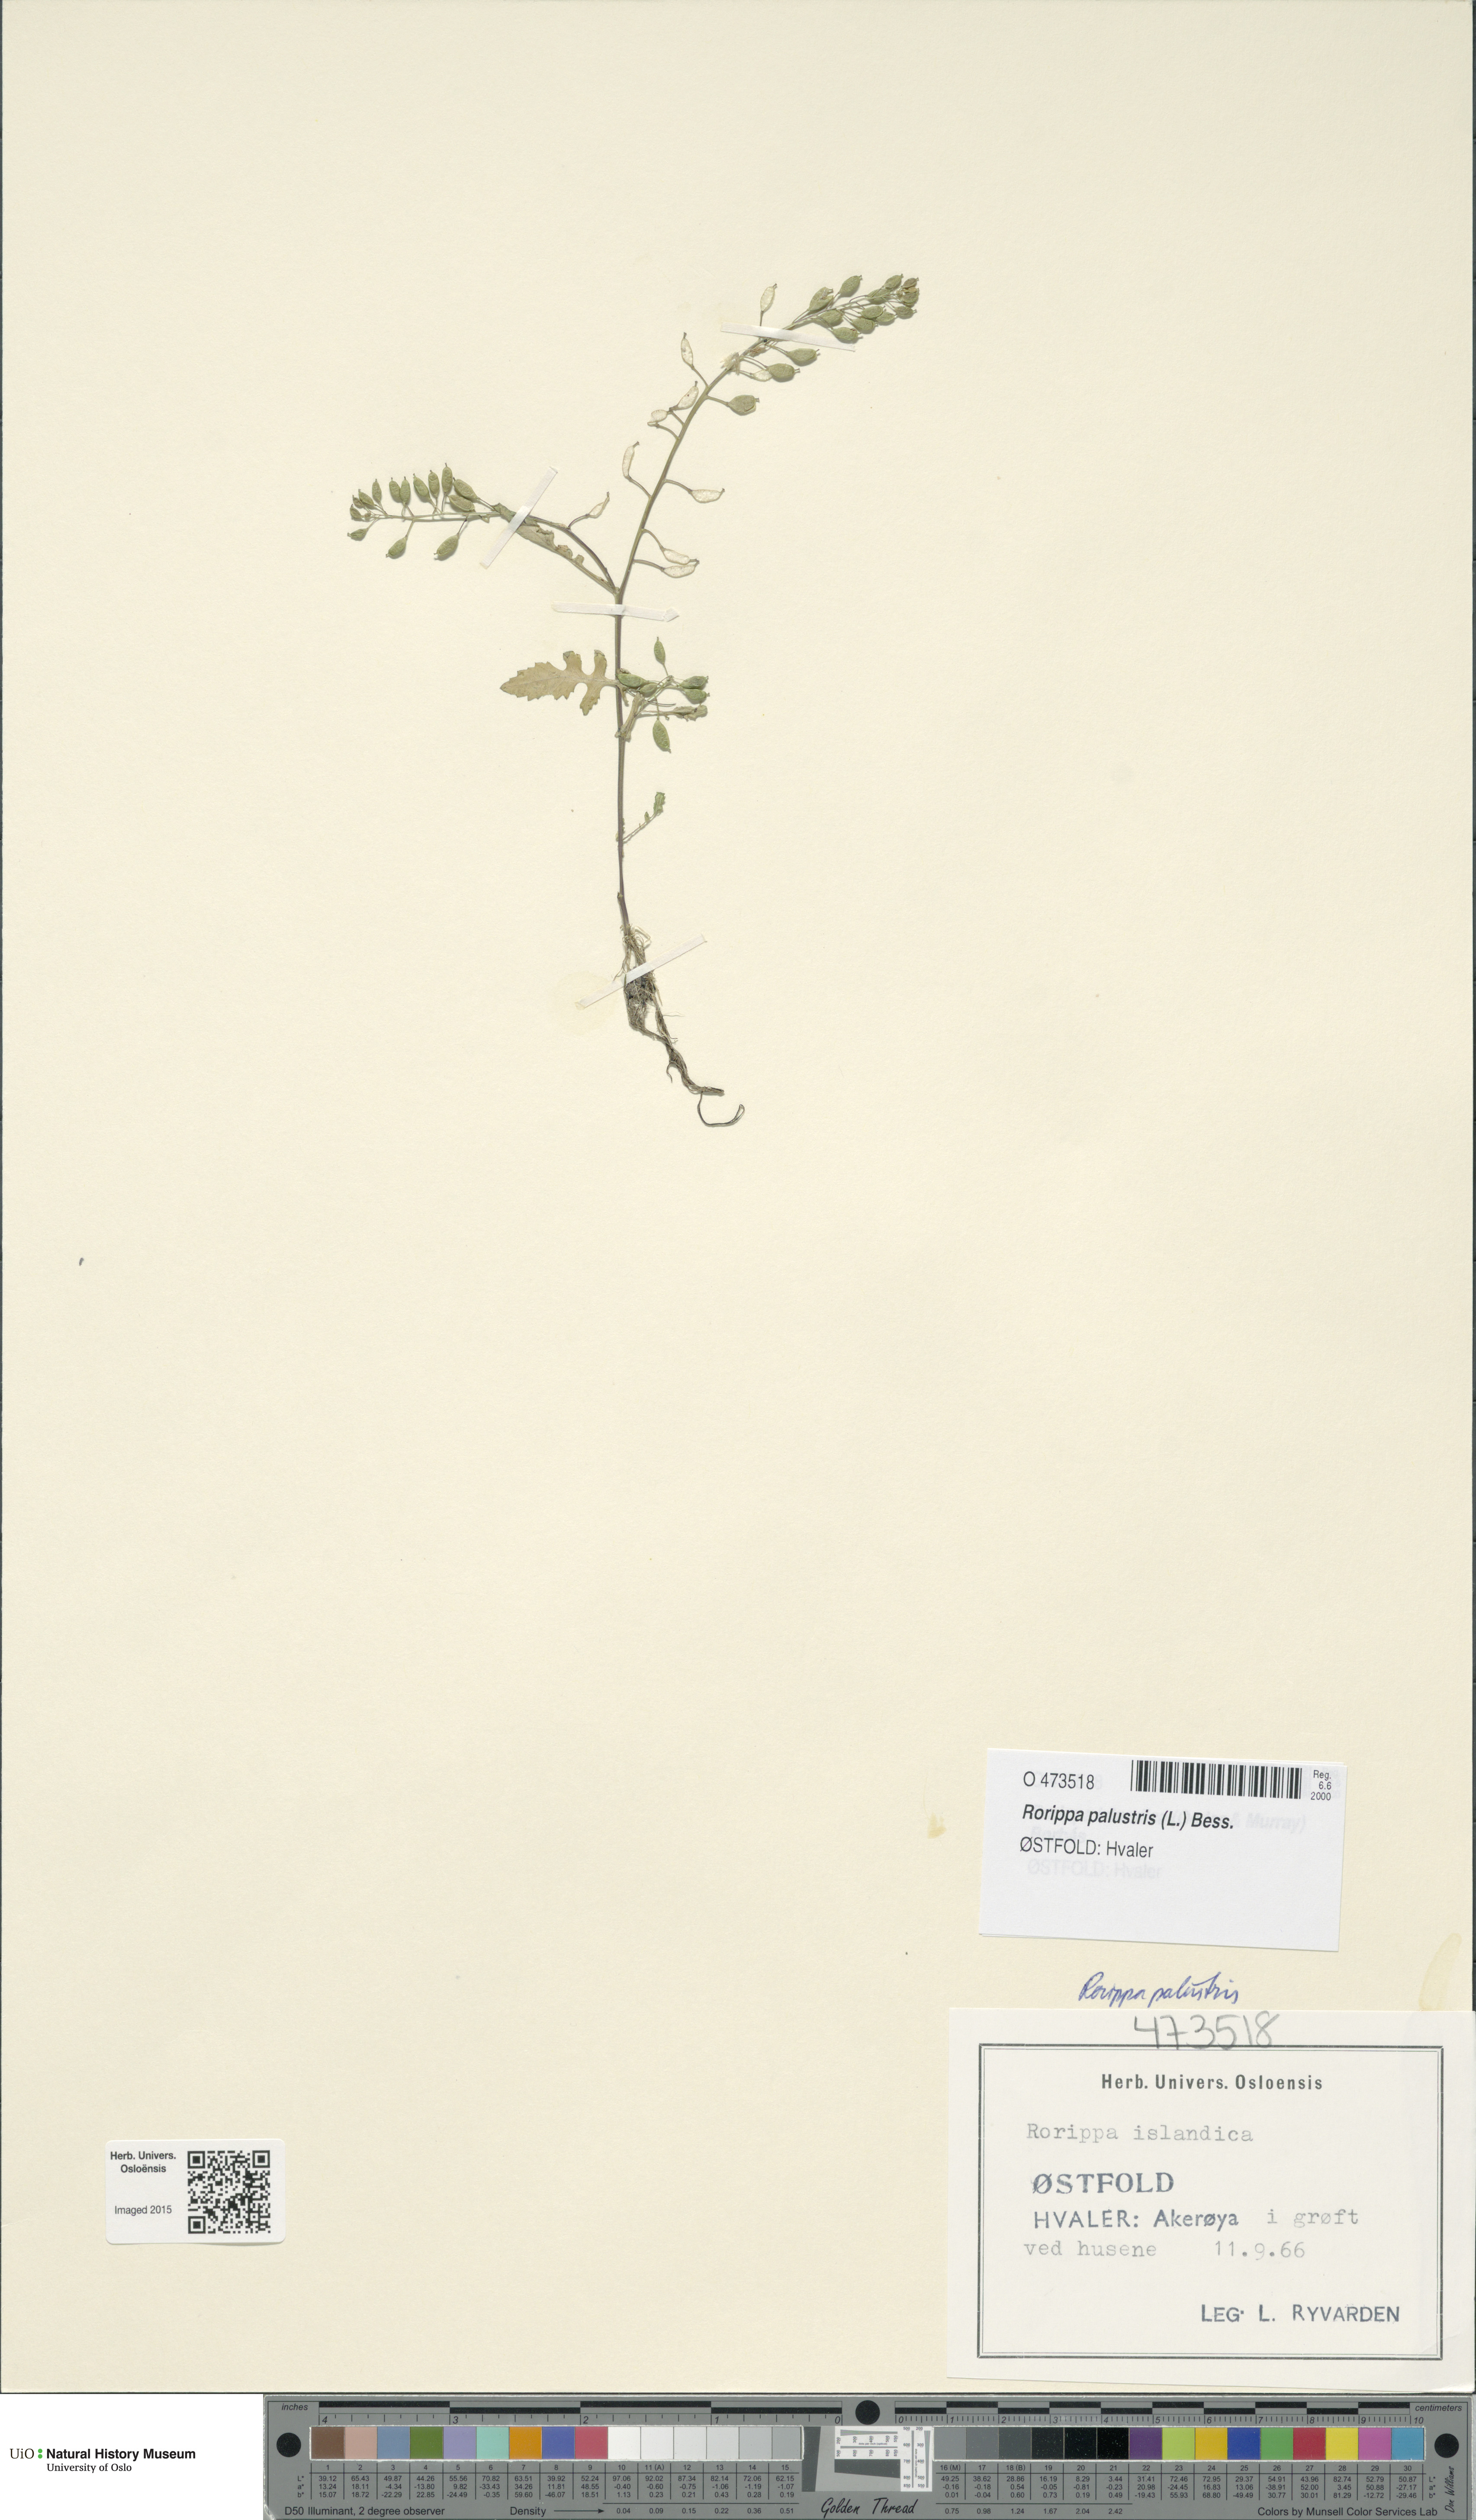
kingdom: Plantae
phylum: Tracheophyta
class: Magnoliopsida
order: Brassicales
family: Brassicaceae
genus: Rorippa
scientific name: Rorippa palustris
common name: Marsh yellow-cress
